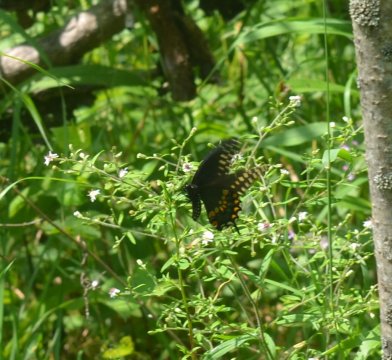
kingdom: Animalia
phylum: Arthropoda
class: Insecta
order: Lepidoptera
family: Papilionidae
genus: Papilio
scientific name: Papilio polyxenes
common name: Black Swallowtail
